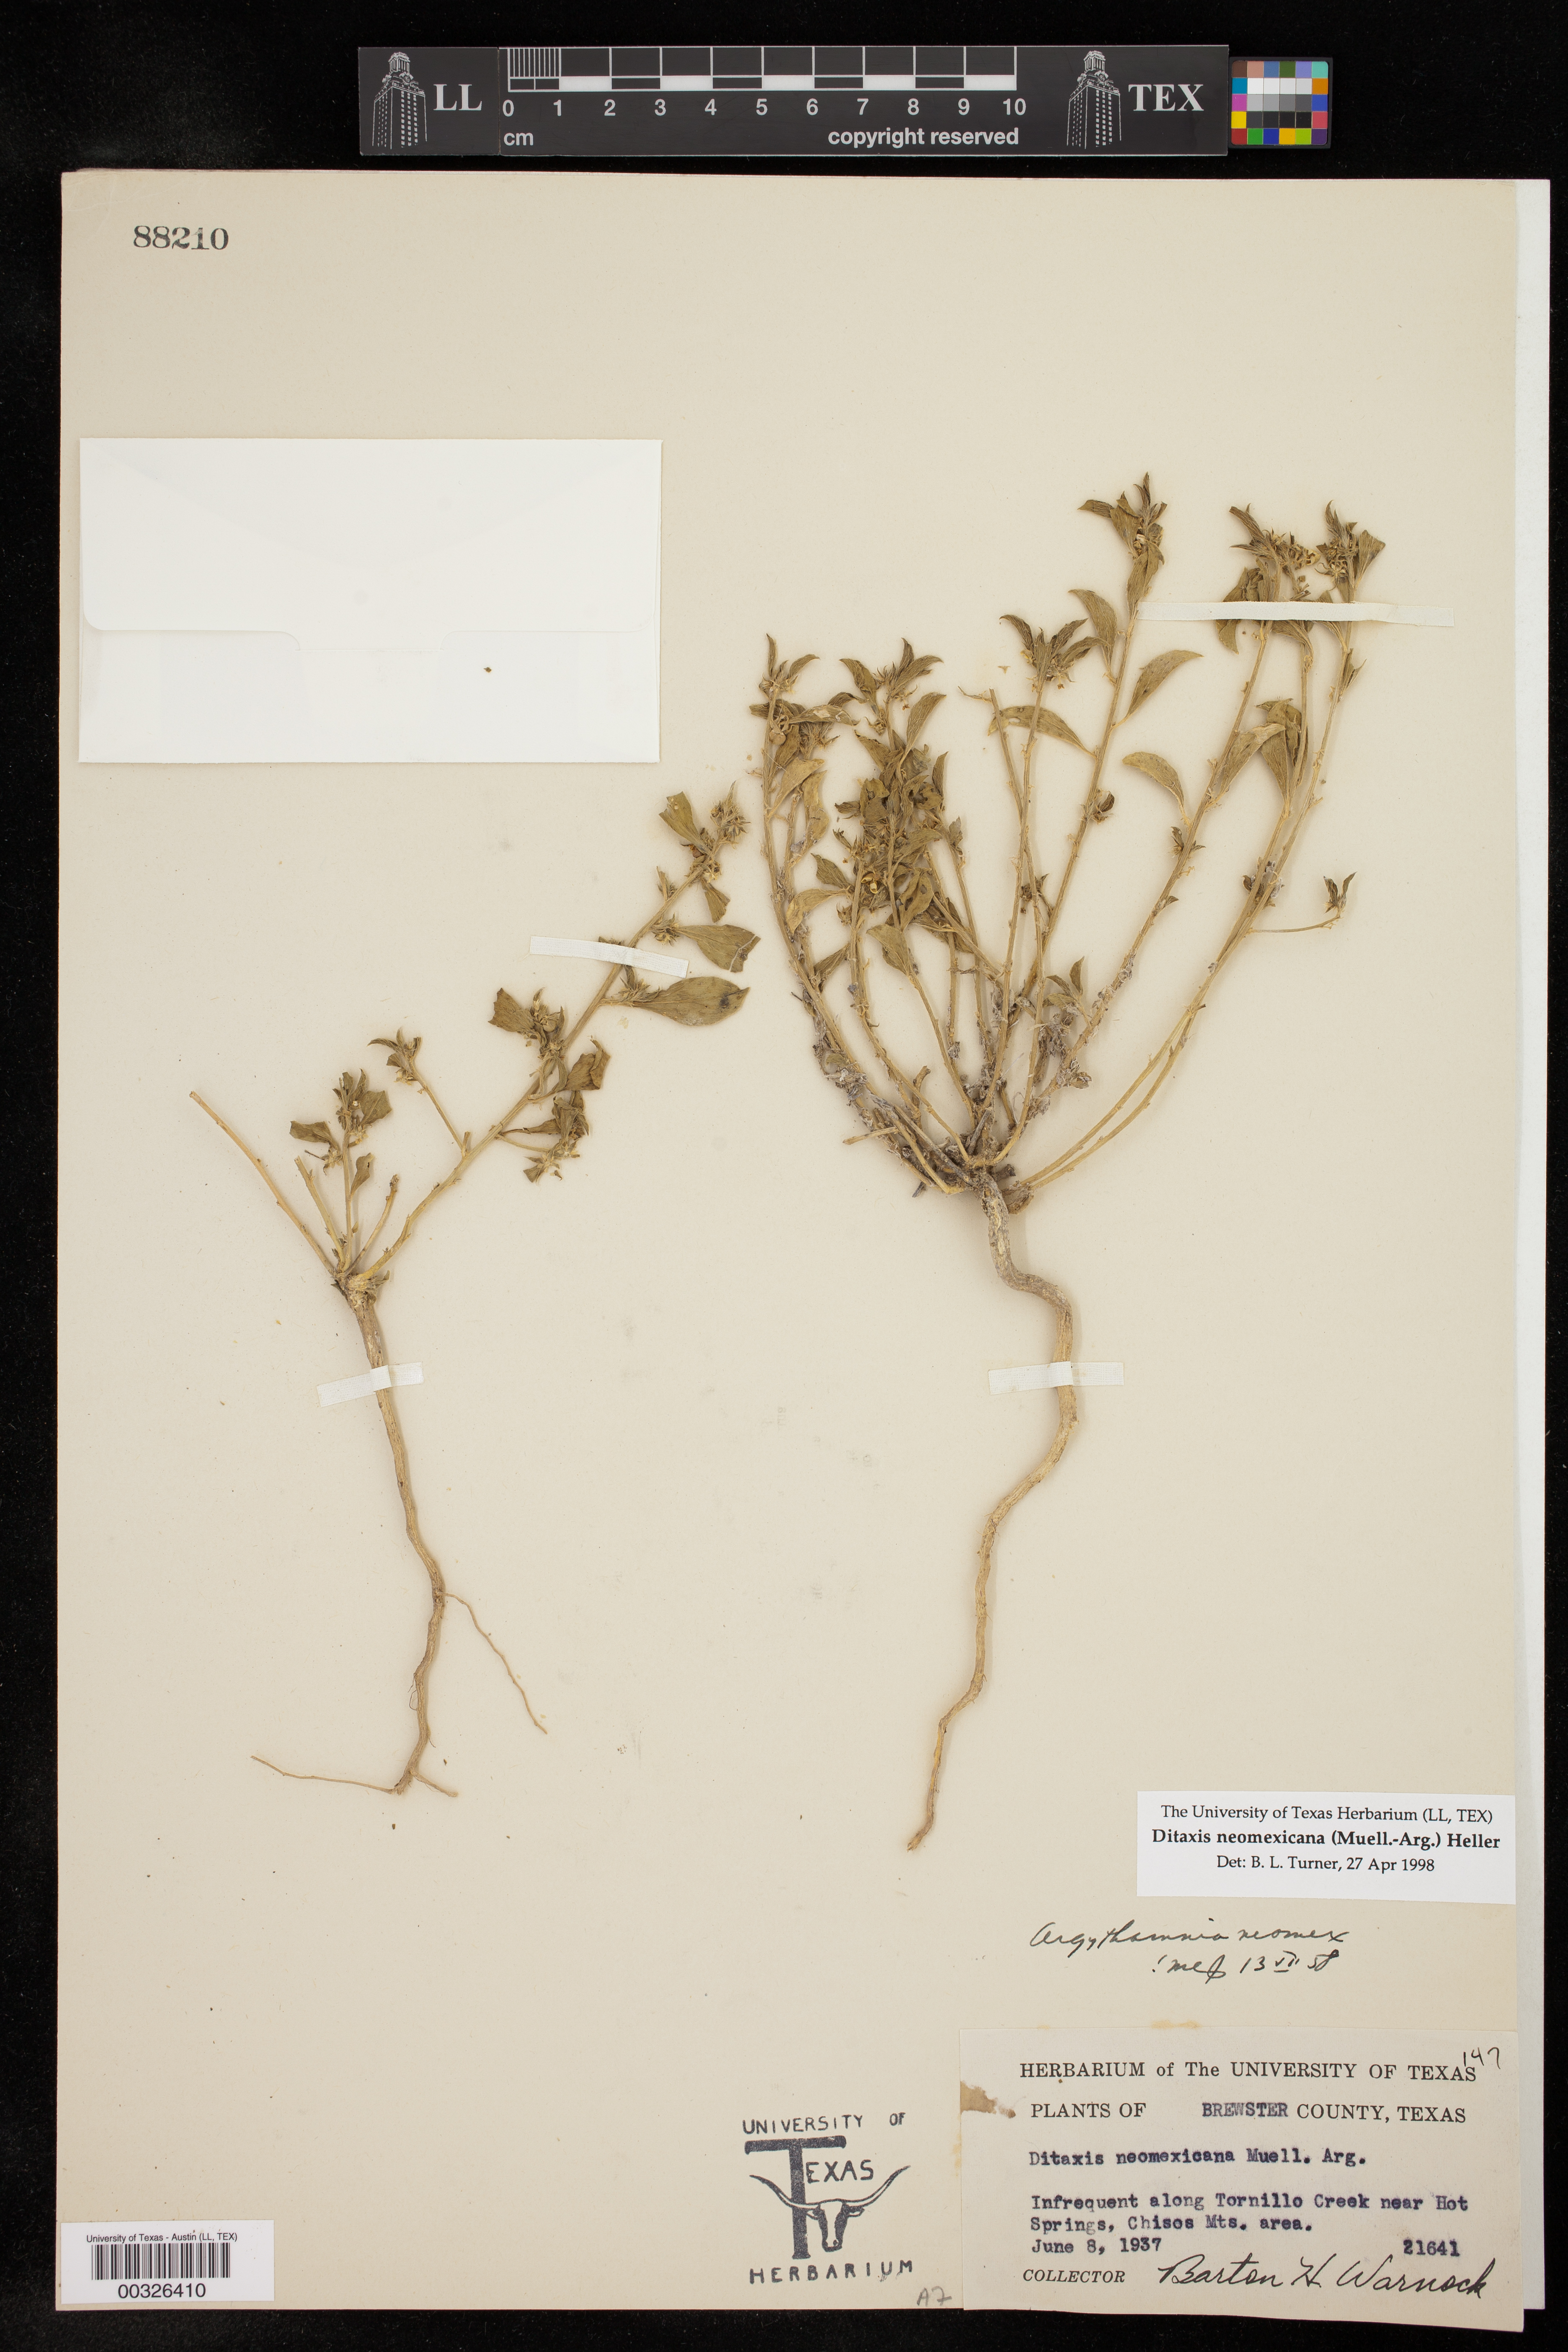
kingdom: Plantae
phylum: Tracheophyta
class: Magnoliopsida
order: Malpighiales
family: Euphorbiaceae
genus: Ditaxis
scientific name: Ditaxis serrata
